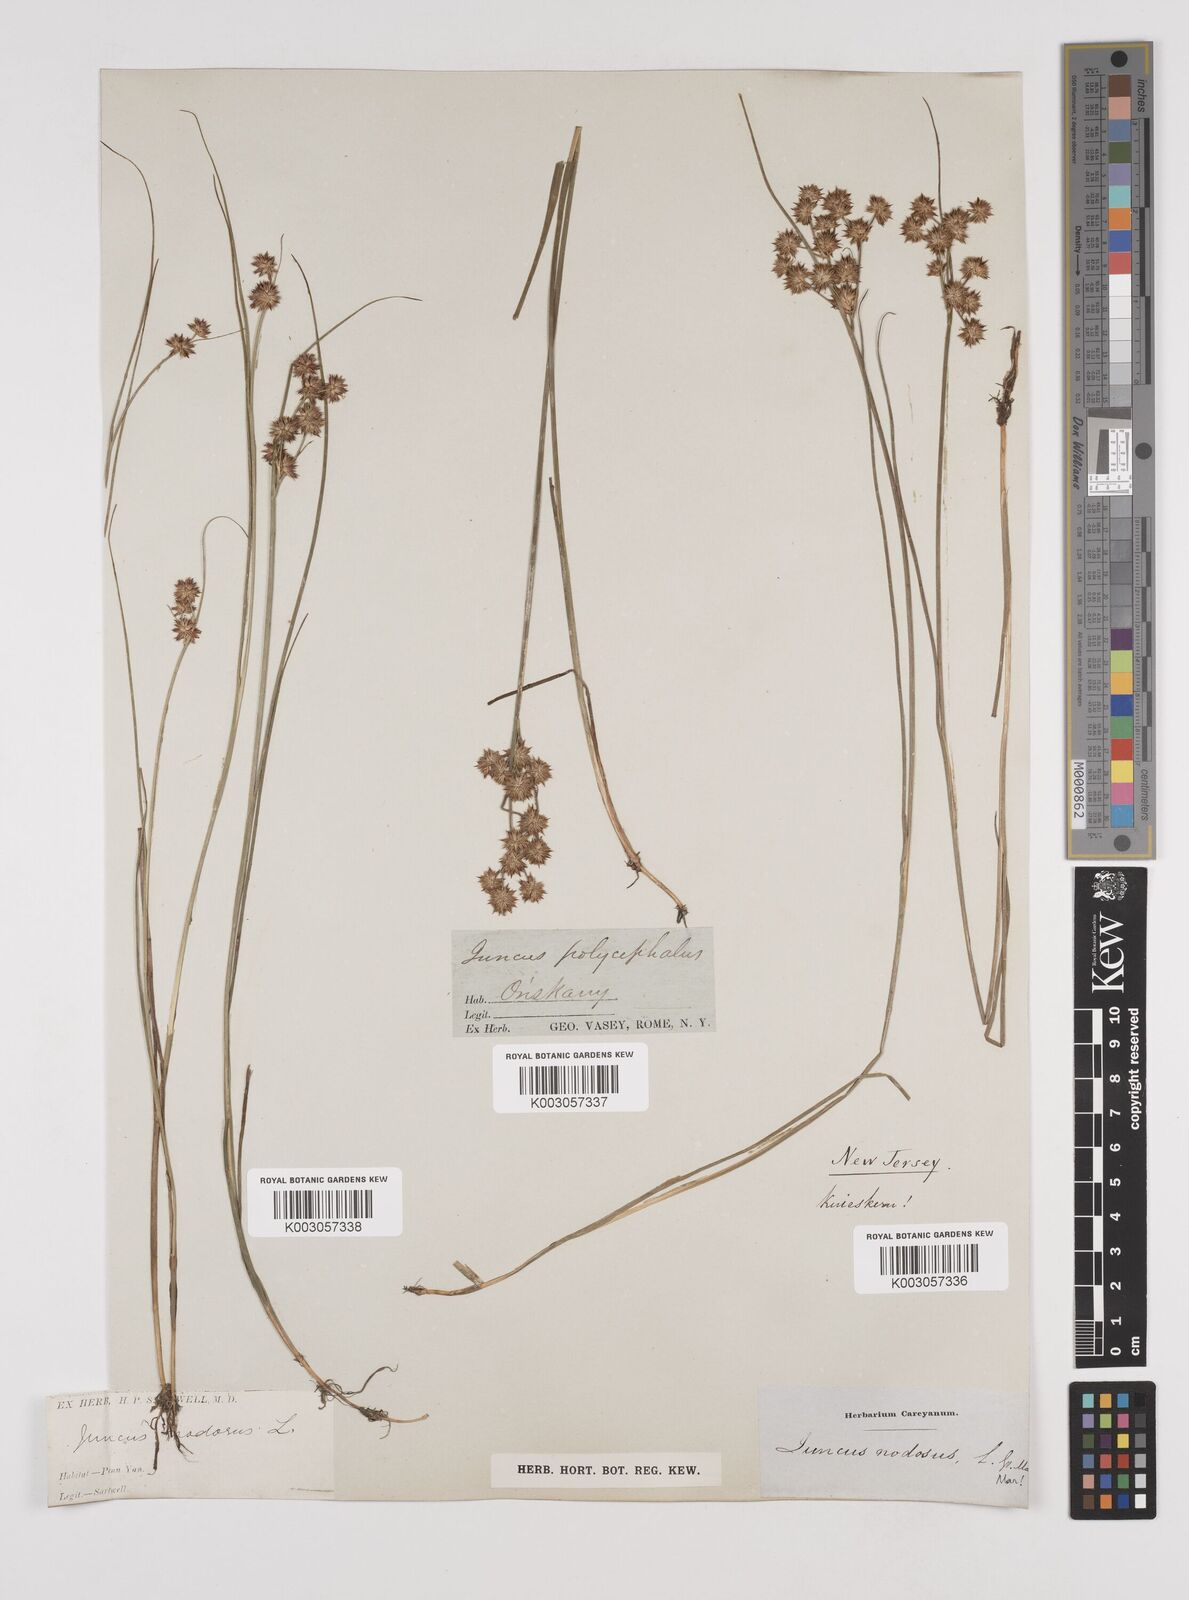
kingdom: Plantae
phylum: Tracheophyta
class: Liliopsida
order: Poales
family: Juncaceae
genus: Juncus
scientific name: Juncus nodosus
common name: Knotted rush
